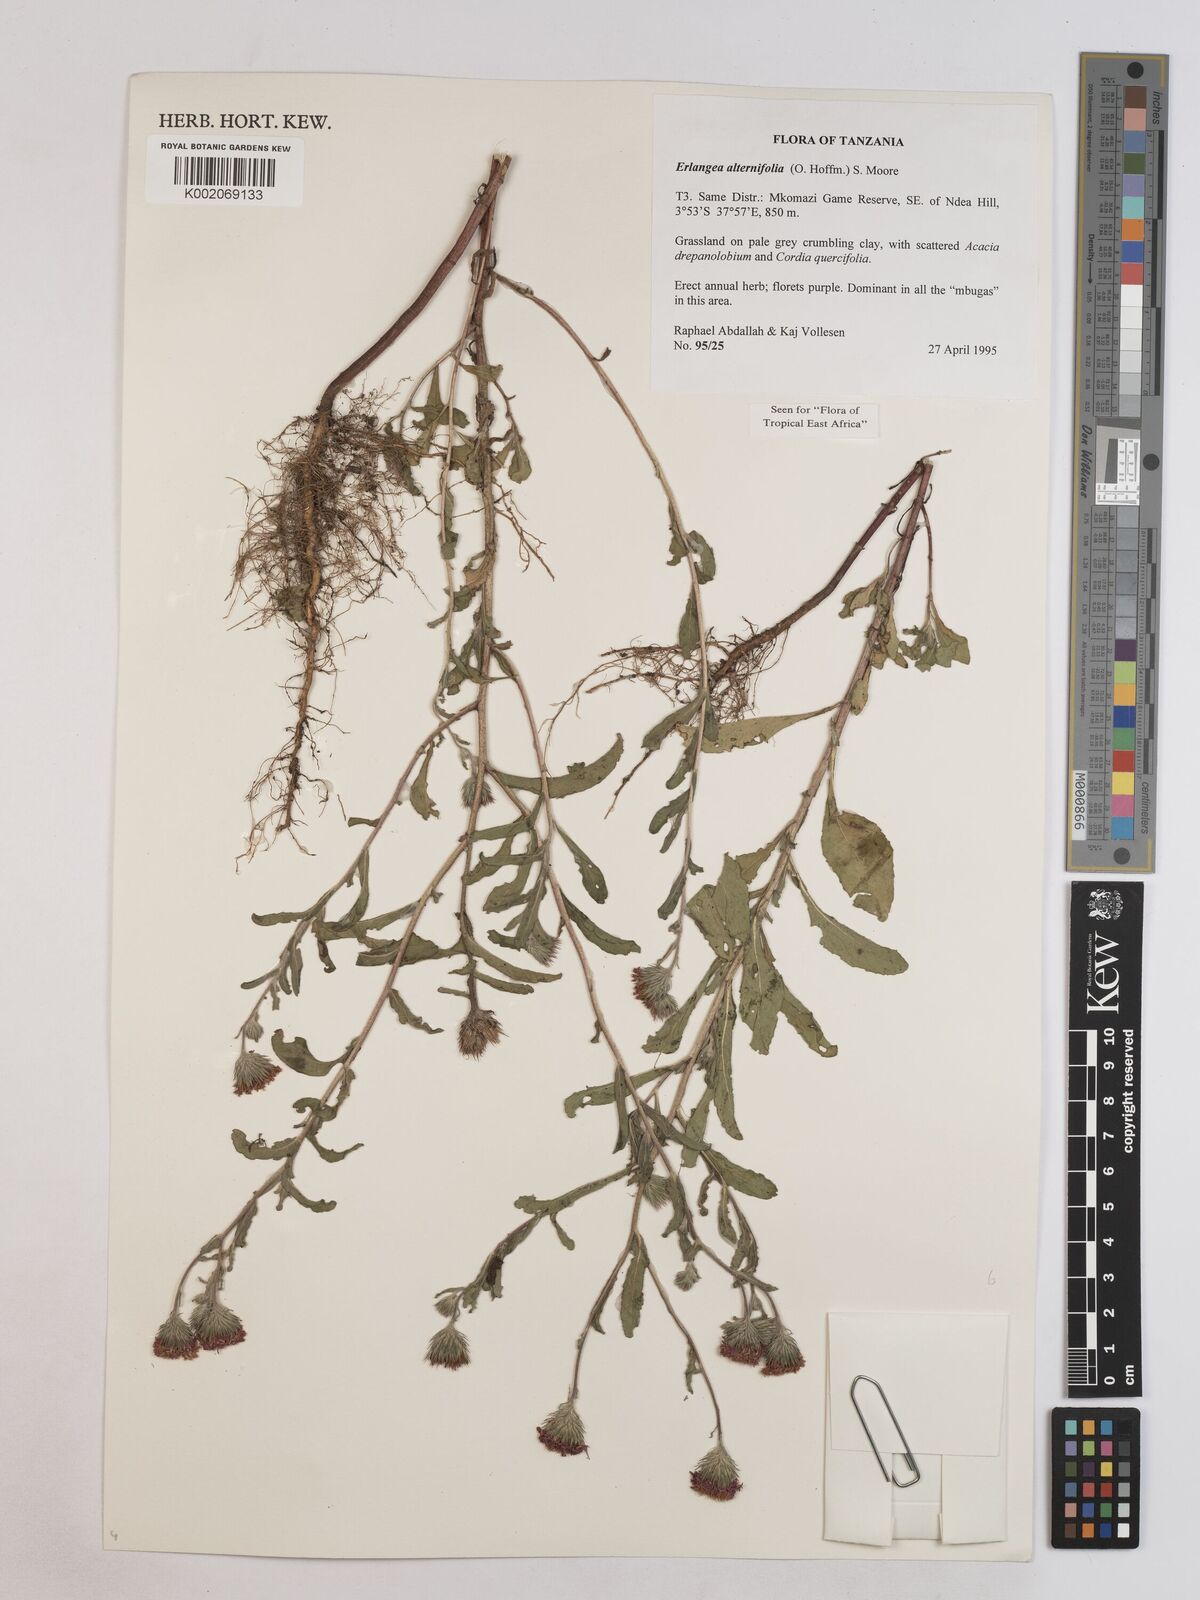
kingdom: Plantae
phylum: Tracheophyta
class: Magnoliopsida
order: Asterales
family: Asteraceae
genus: Erlangea
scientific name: Erlangea alternifolia
